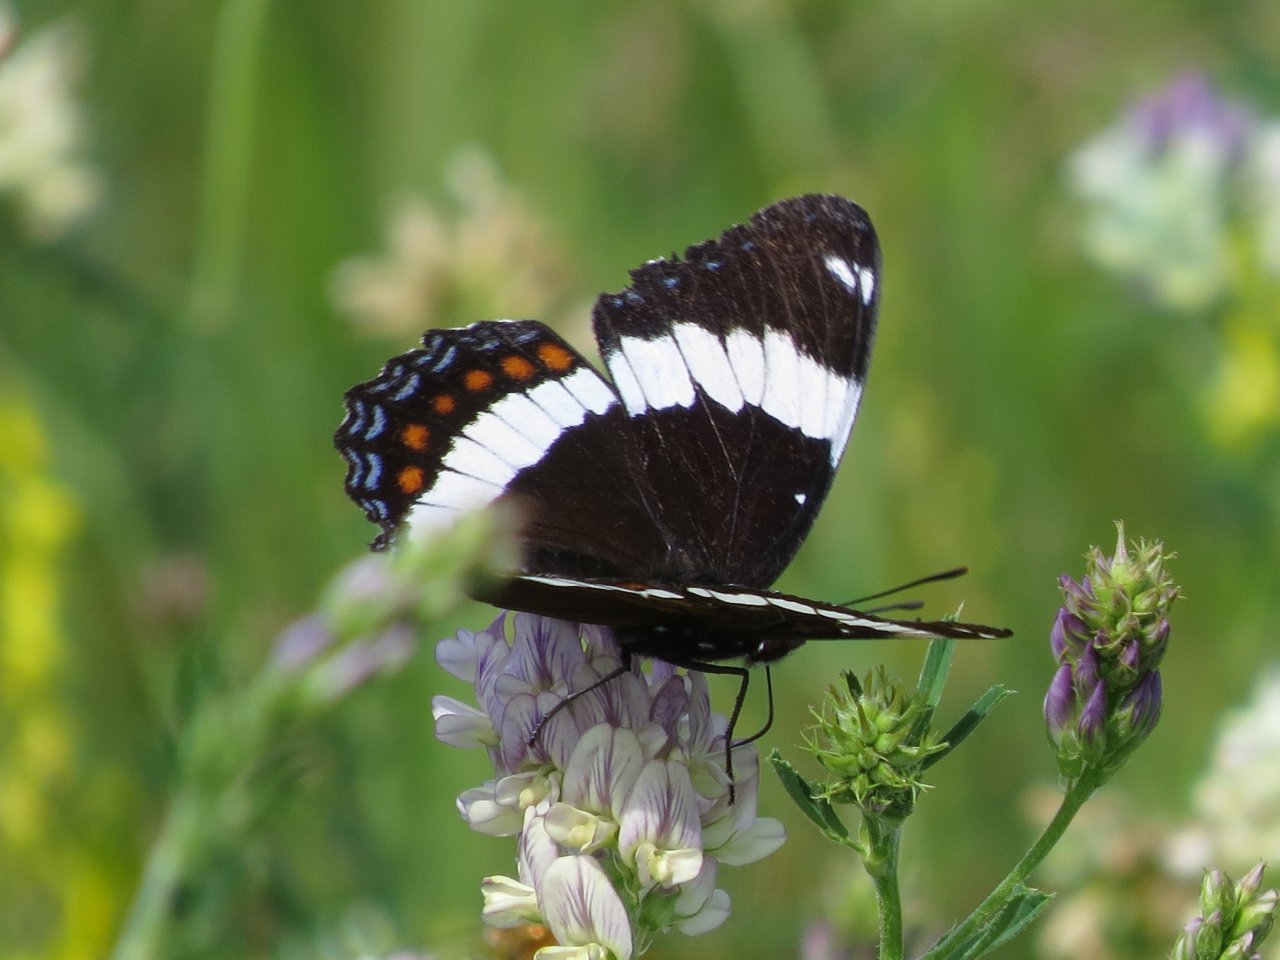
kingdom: Animalia
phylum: Arthropoda
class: Insecta
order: Lepidoptera
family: Nymphalidae
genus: Limenitis
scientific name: Limenitis arthemis
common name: Red-spotted Admiral
